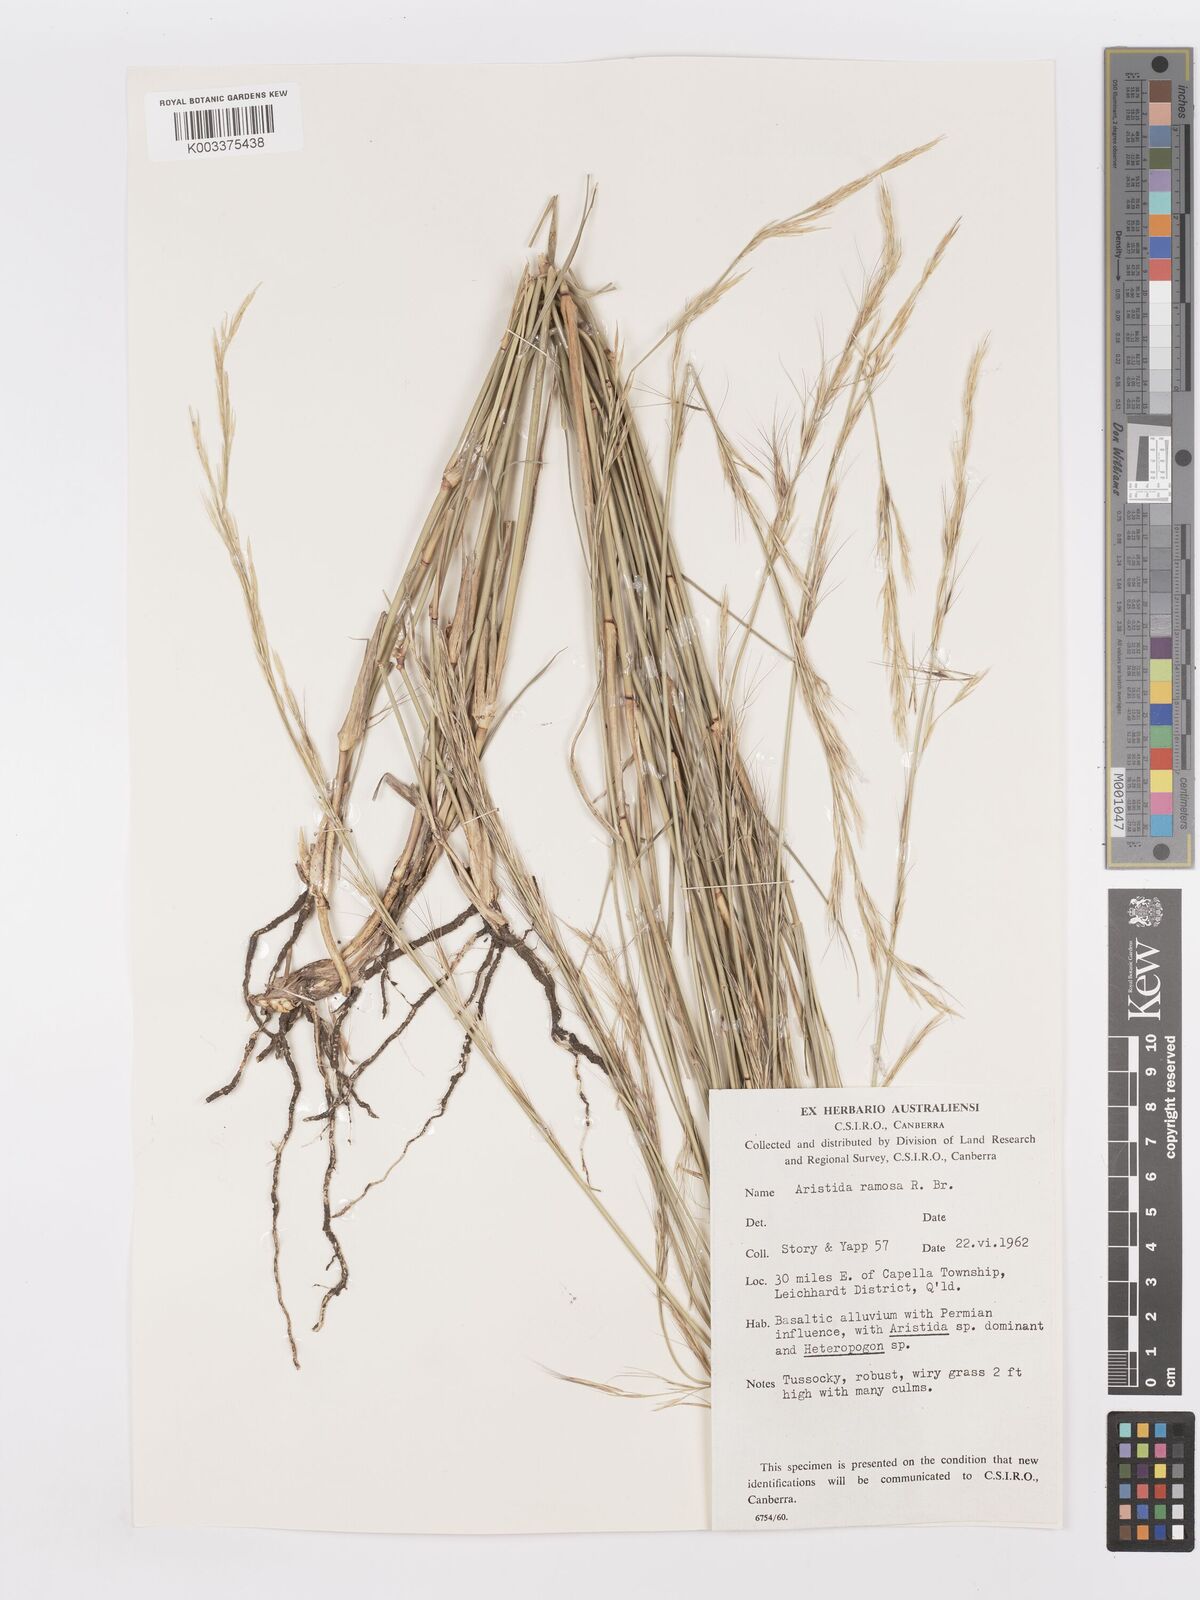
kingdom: Plantae
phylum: Tracheophyta
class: Liliopsida
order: Poales
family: Poaceae
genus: Aristida
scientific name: Aristida ramosa
